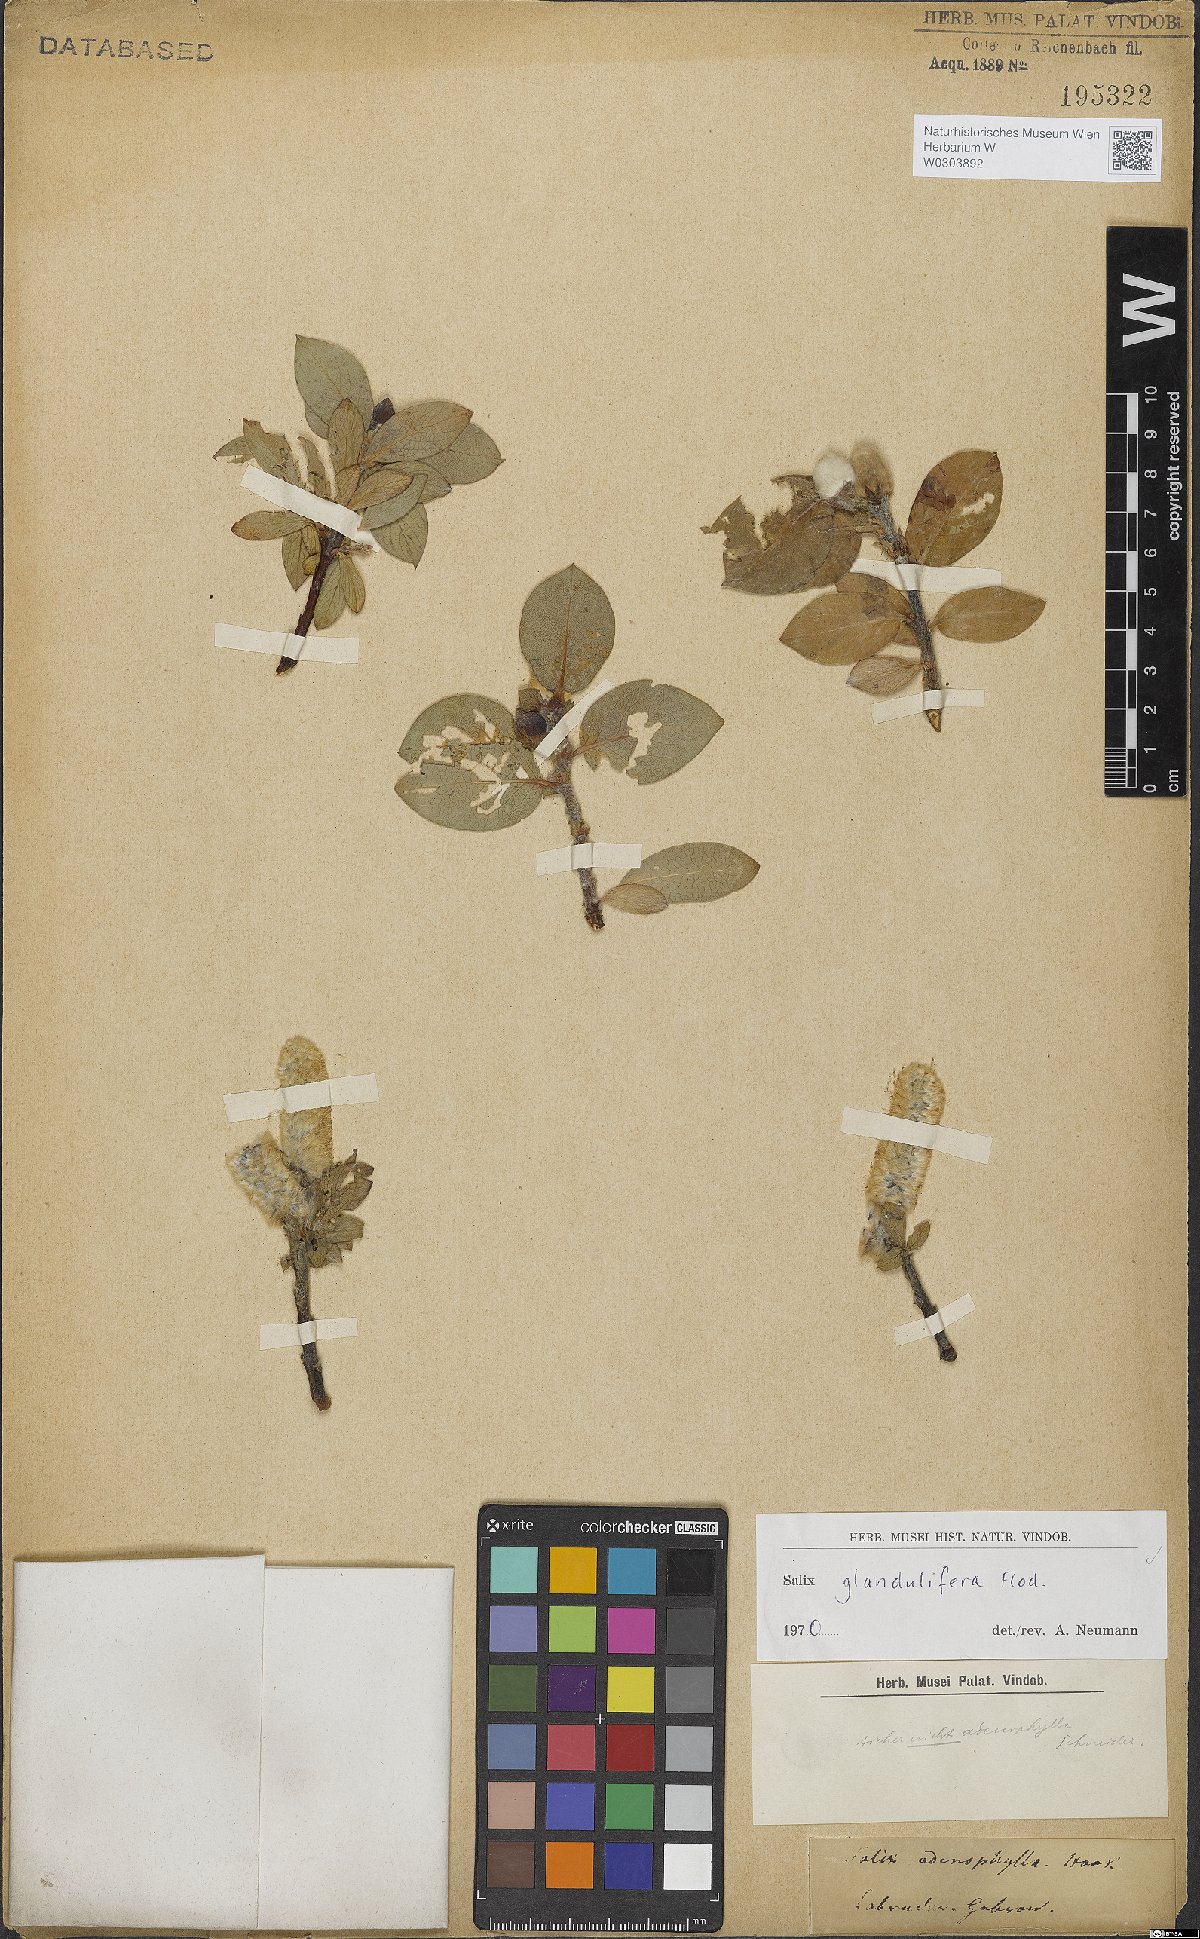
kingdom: Plantae
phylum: Tracheophyta
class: Magnoliopsida
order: Malpighiales
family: Salicaceae
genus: Salix
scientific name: Salix lanata
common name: Woolly willow
